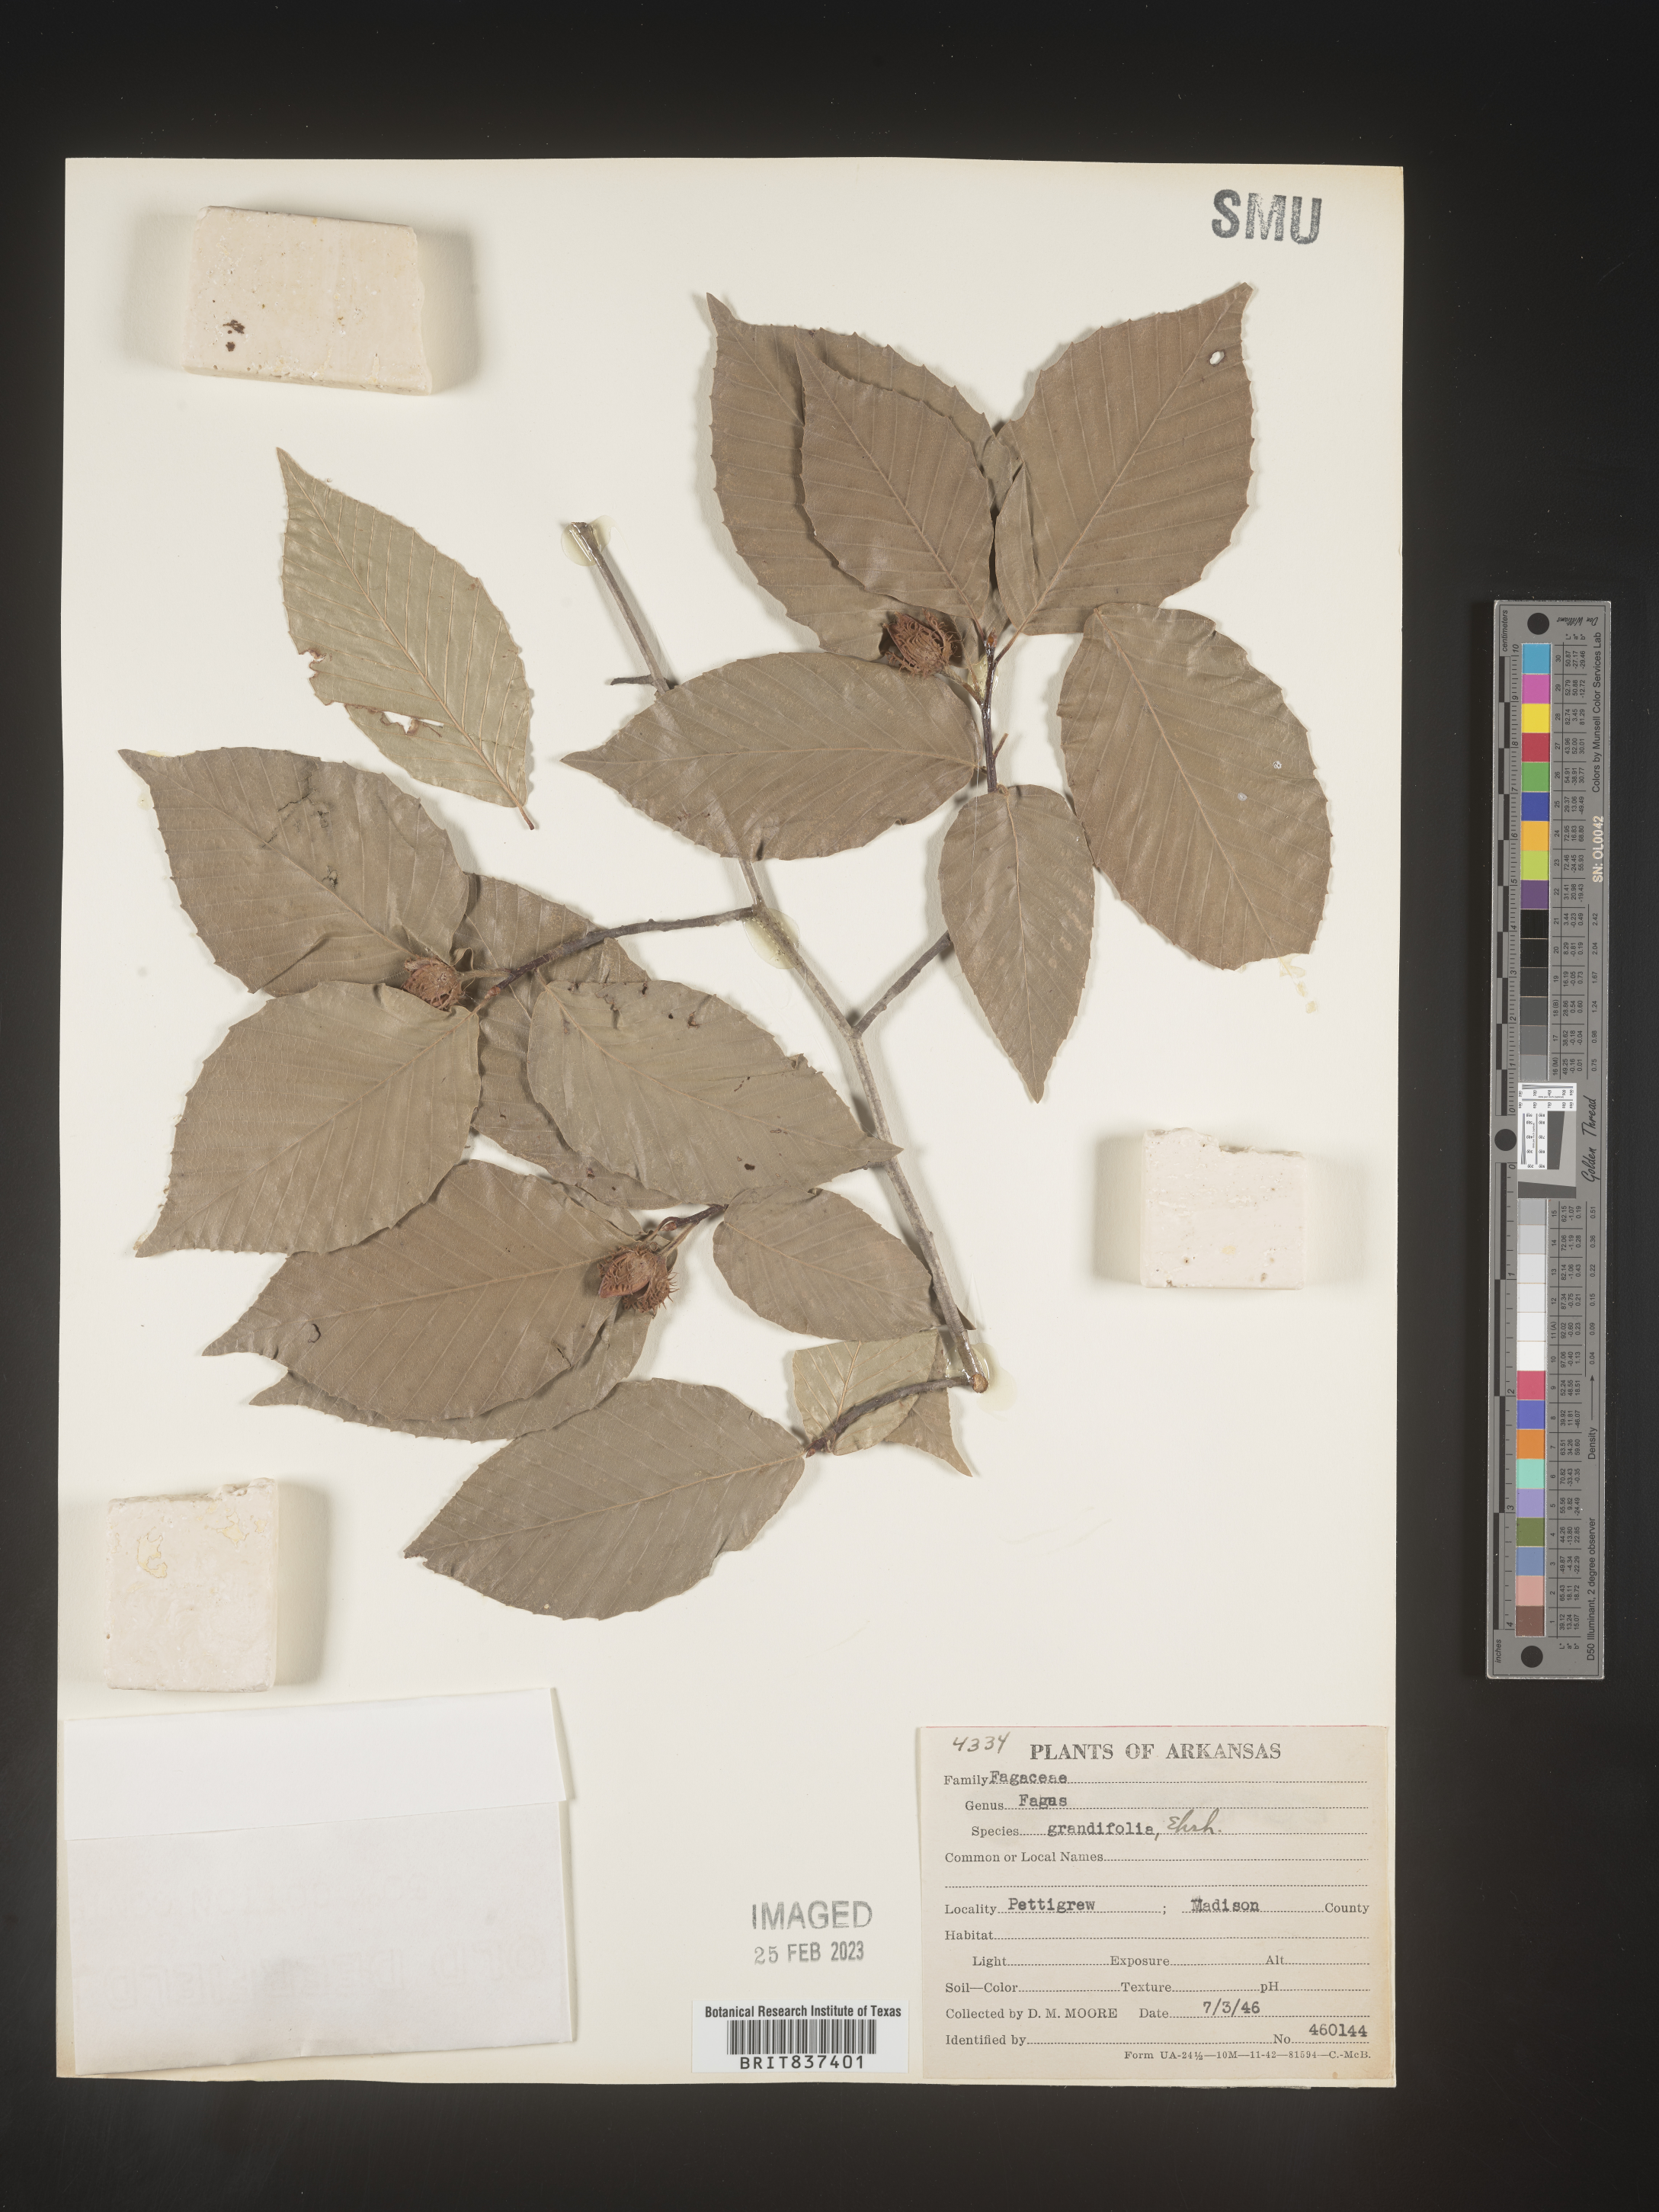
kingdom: Plantae
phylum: Tracheophyta
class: Magnoliopsida
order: Fagales
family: Fagaceae
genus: Fagus
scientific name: Fagus grandifolia
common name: American beech
